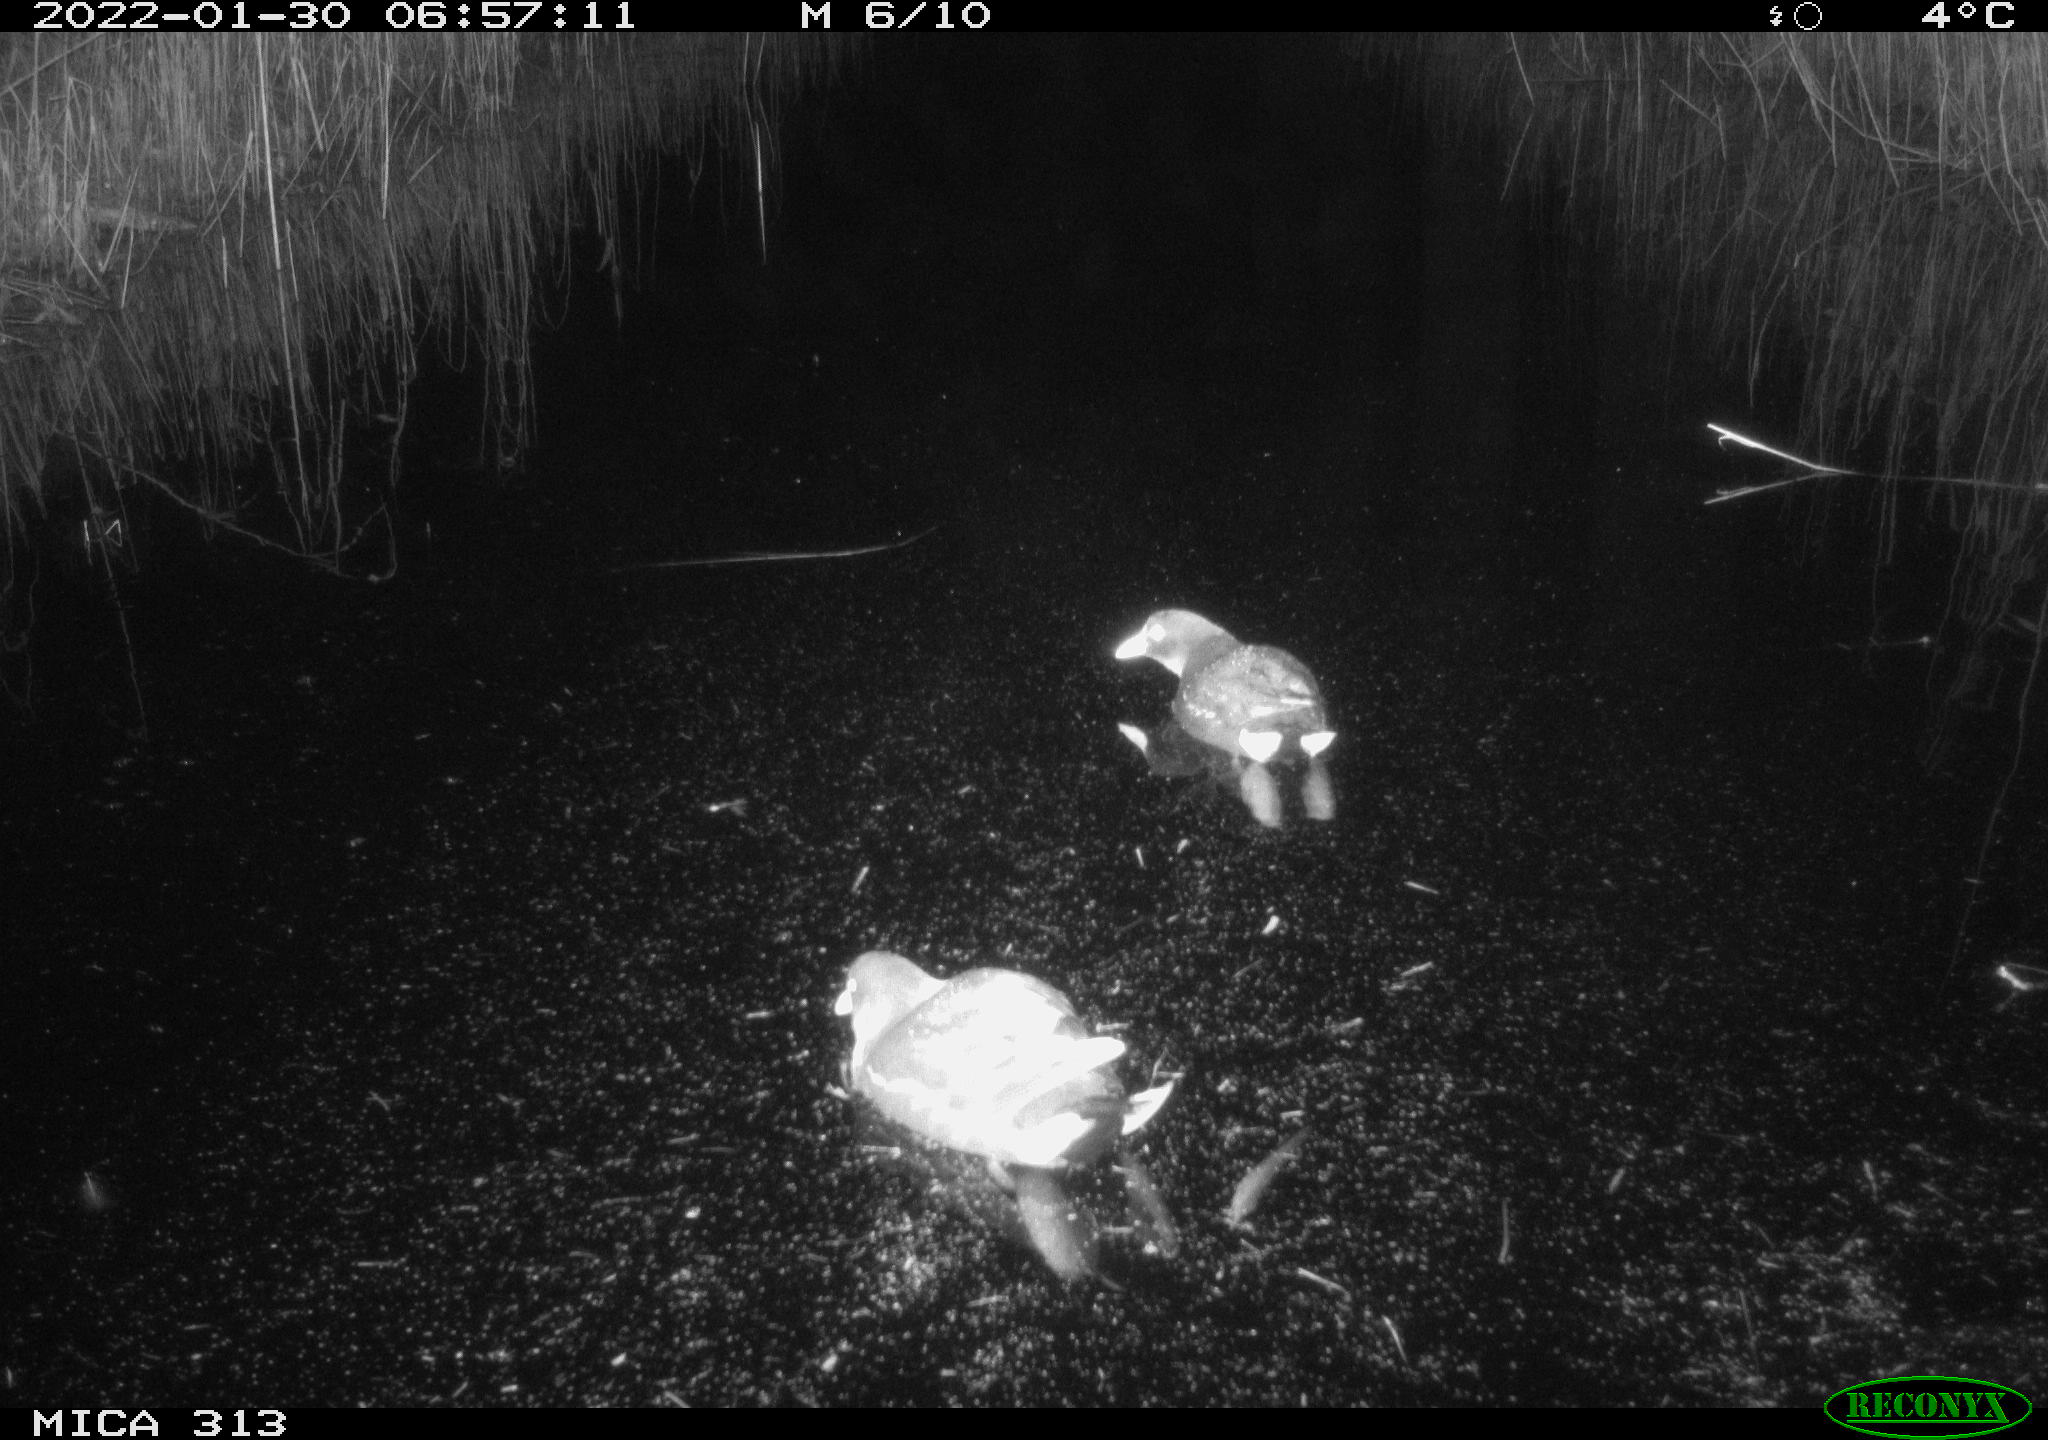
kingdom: Animalia
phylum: Chordata
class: Aves
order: Gruiformes
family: Rallidae
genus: Fulica
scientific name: Fulica atra
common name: Eurasian coot
